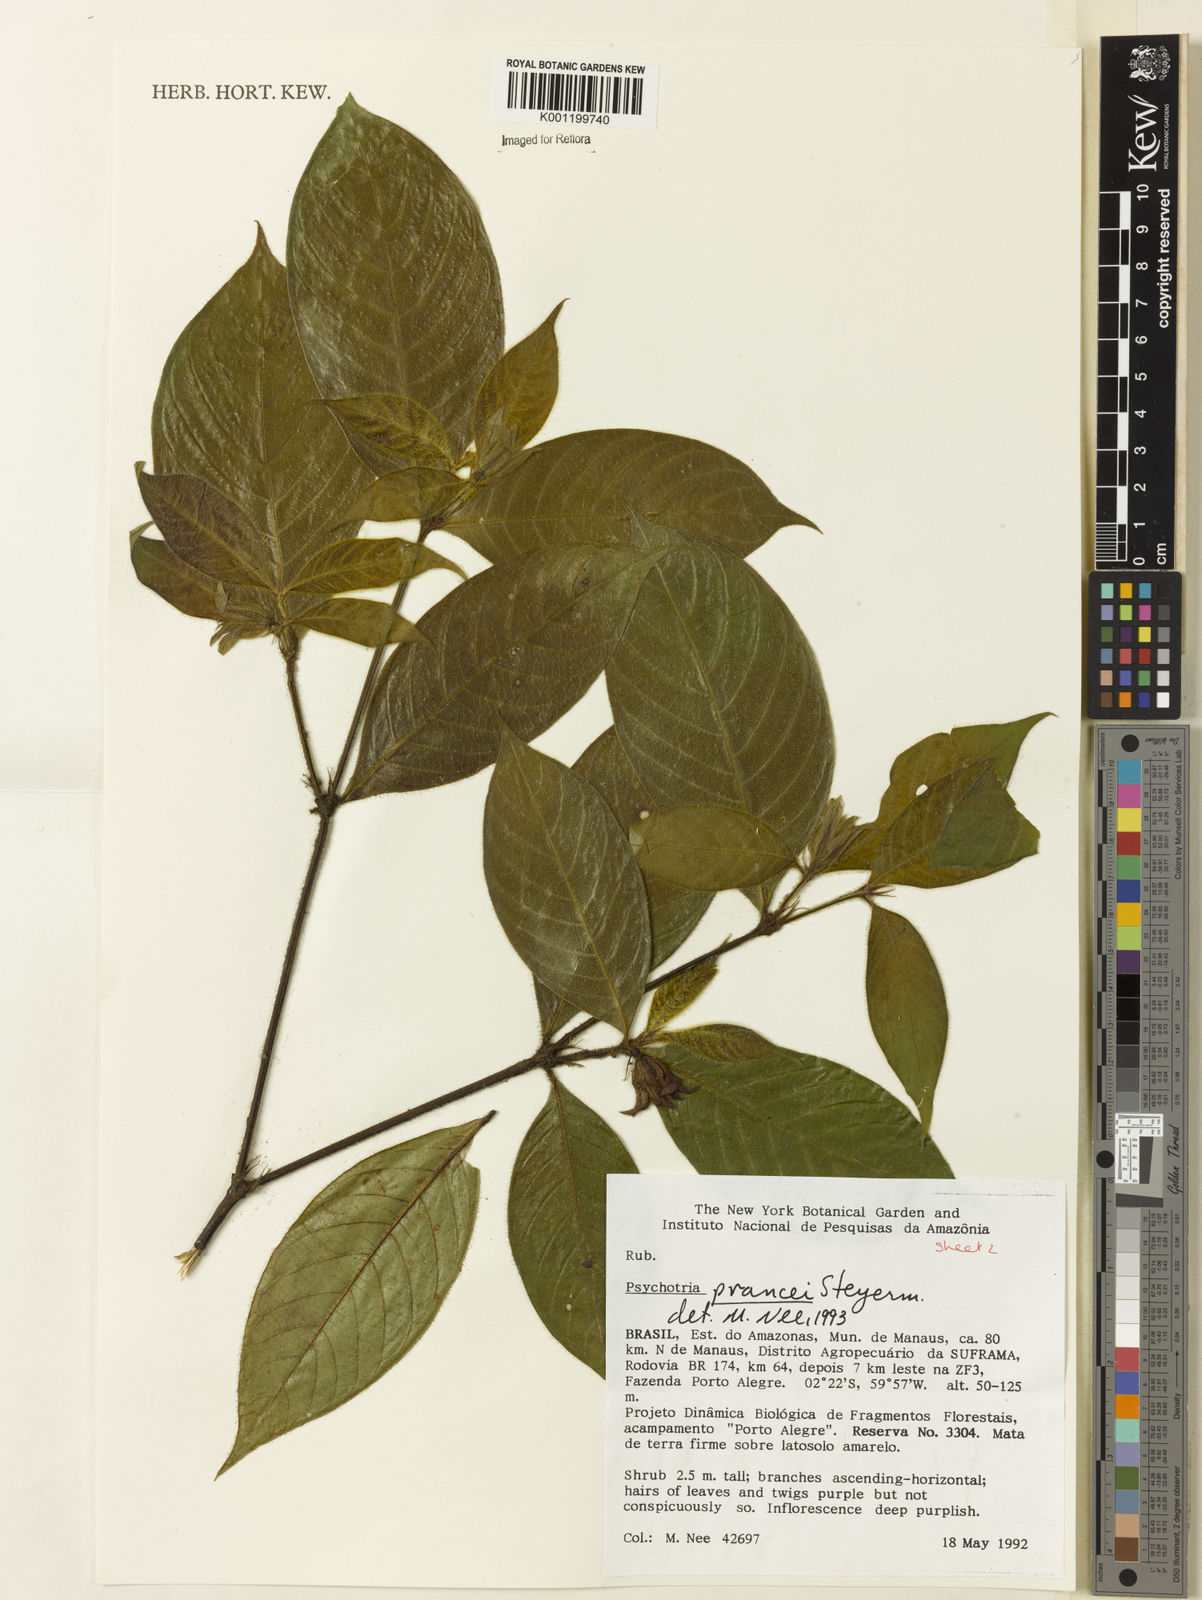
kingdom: Plantae
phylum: Tracheophyta
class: Magnoliopsida
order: Gentianales
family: Rubiaceae
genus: Palicourea
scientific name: Palicourea prancei
